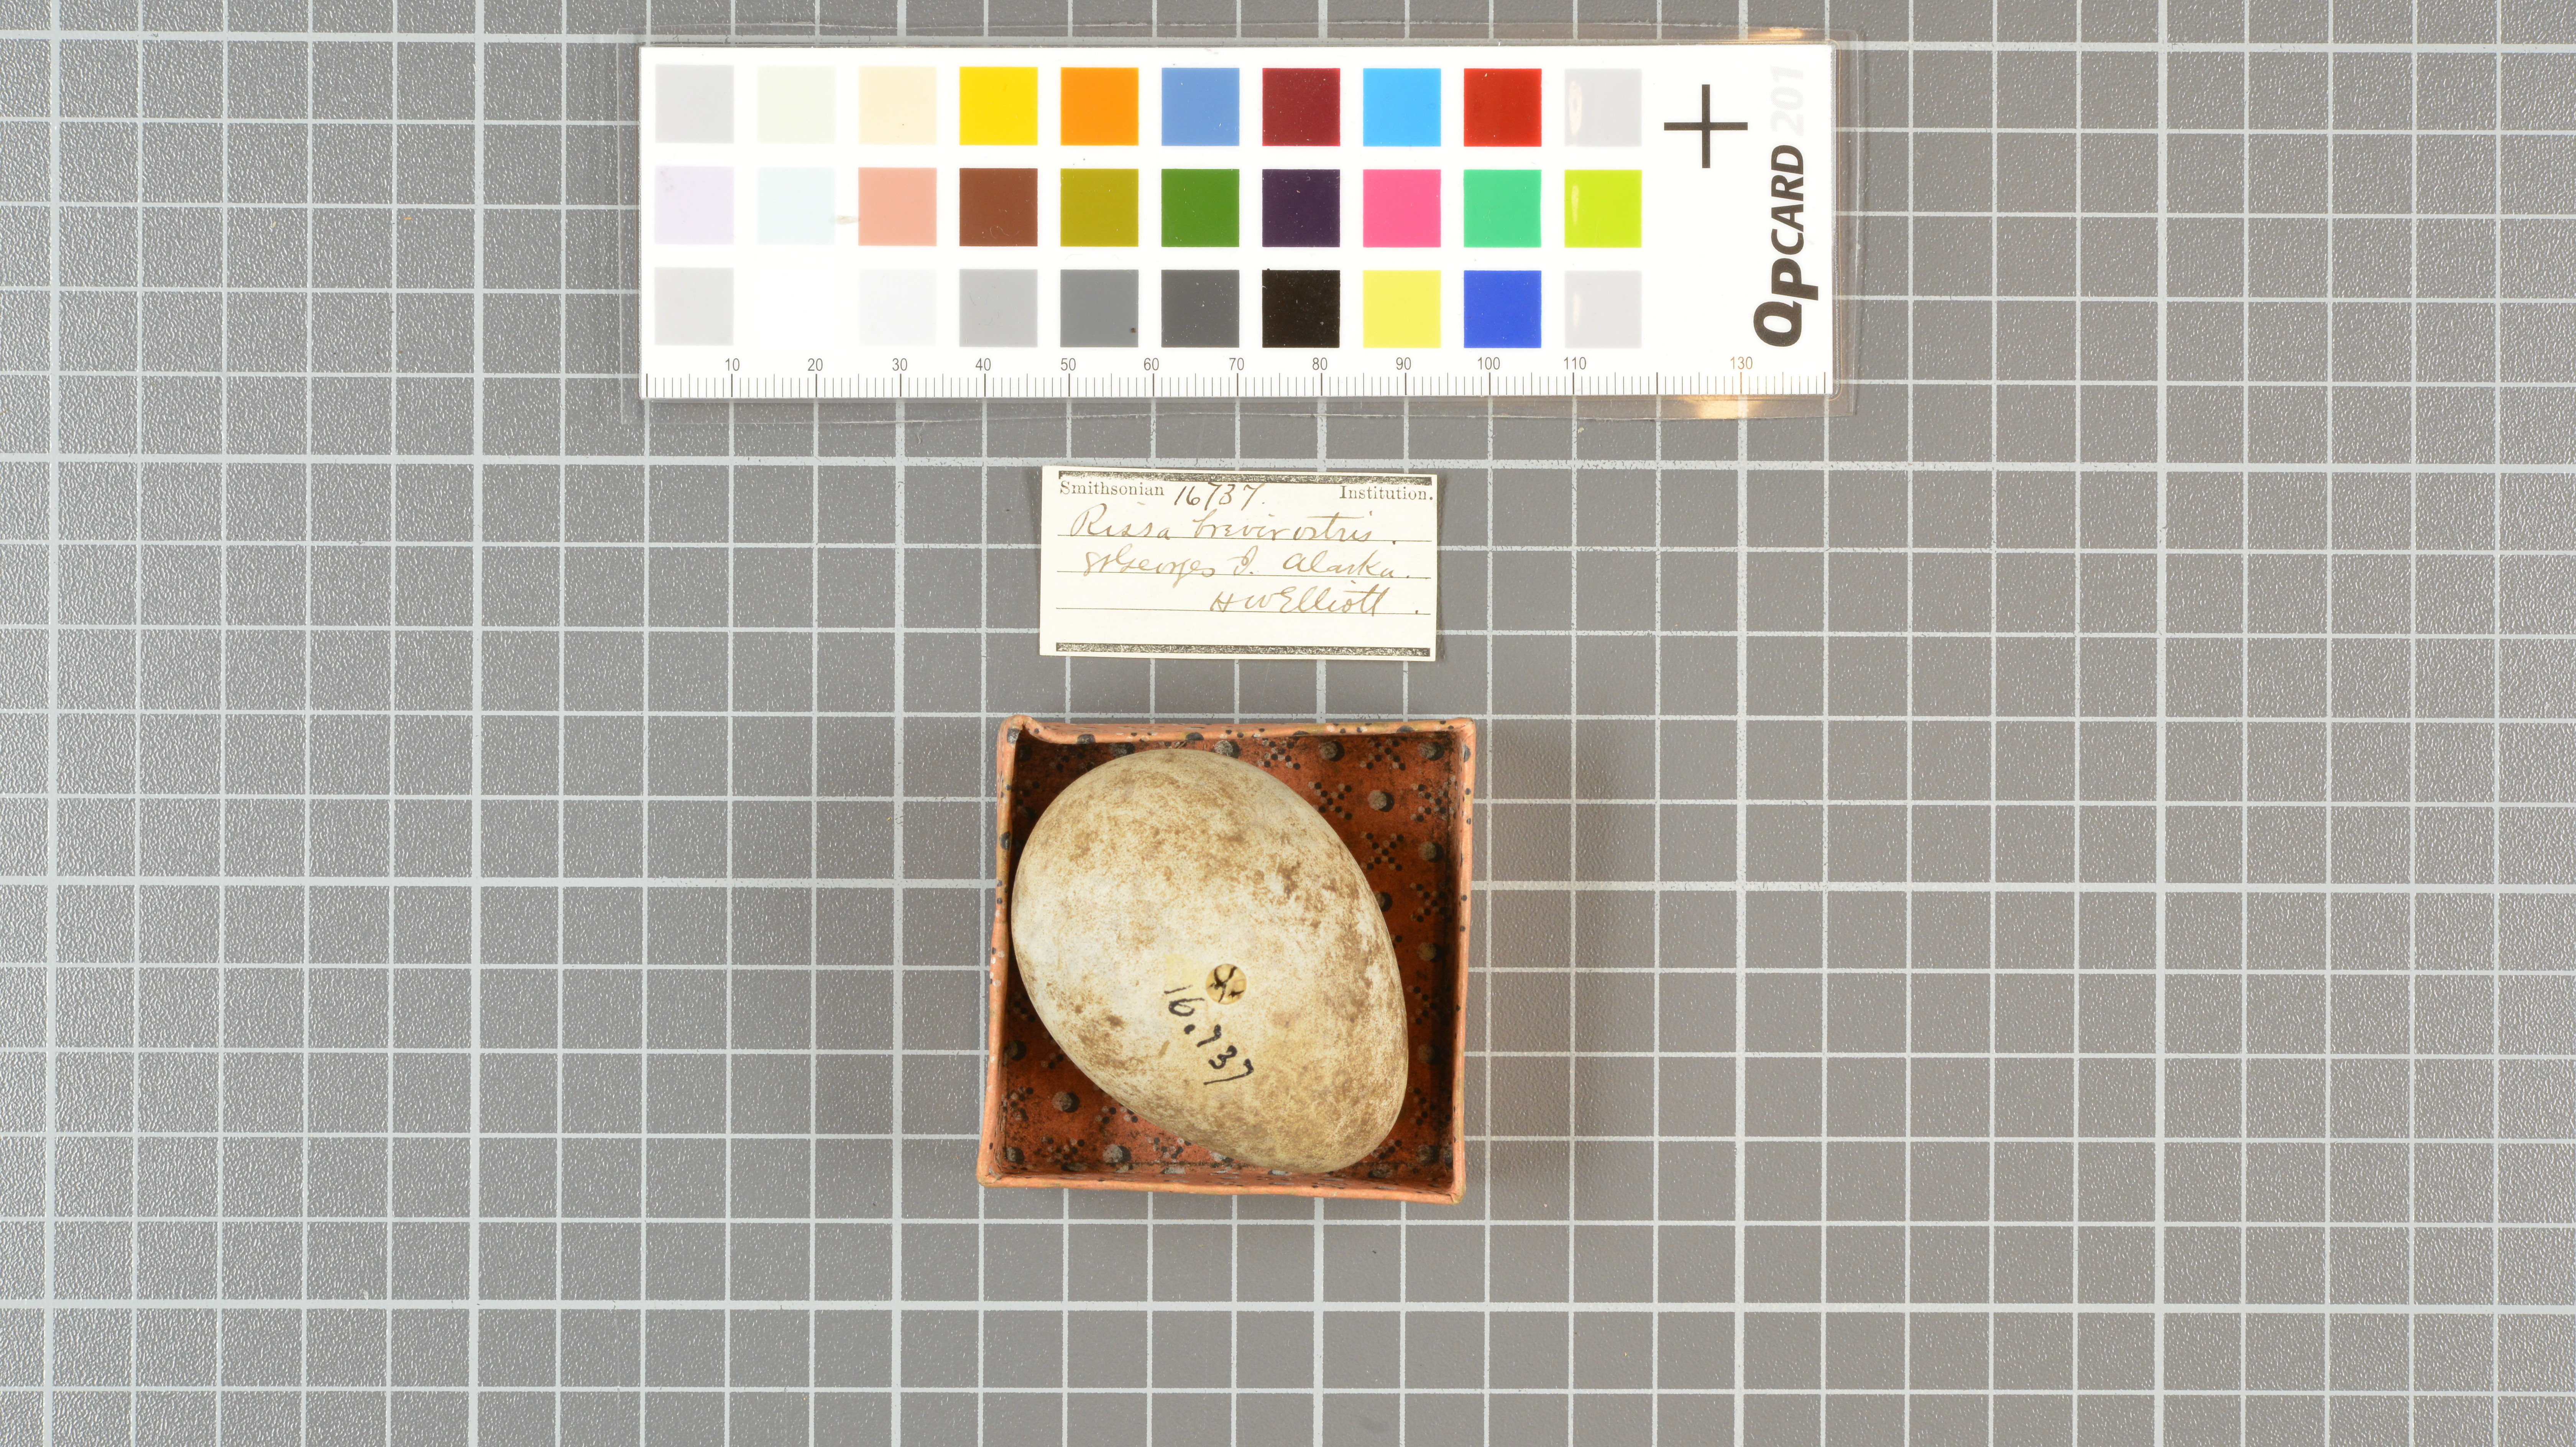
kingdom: Animalia
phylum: Chordata
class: Aves
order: Charadriiformes
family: Laridae
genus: Rissa
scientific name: Rissa brevirostris
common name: Red-legged kittiwake
